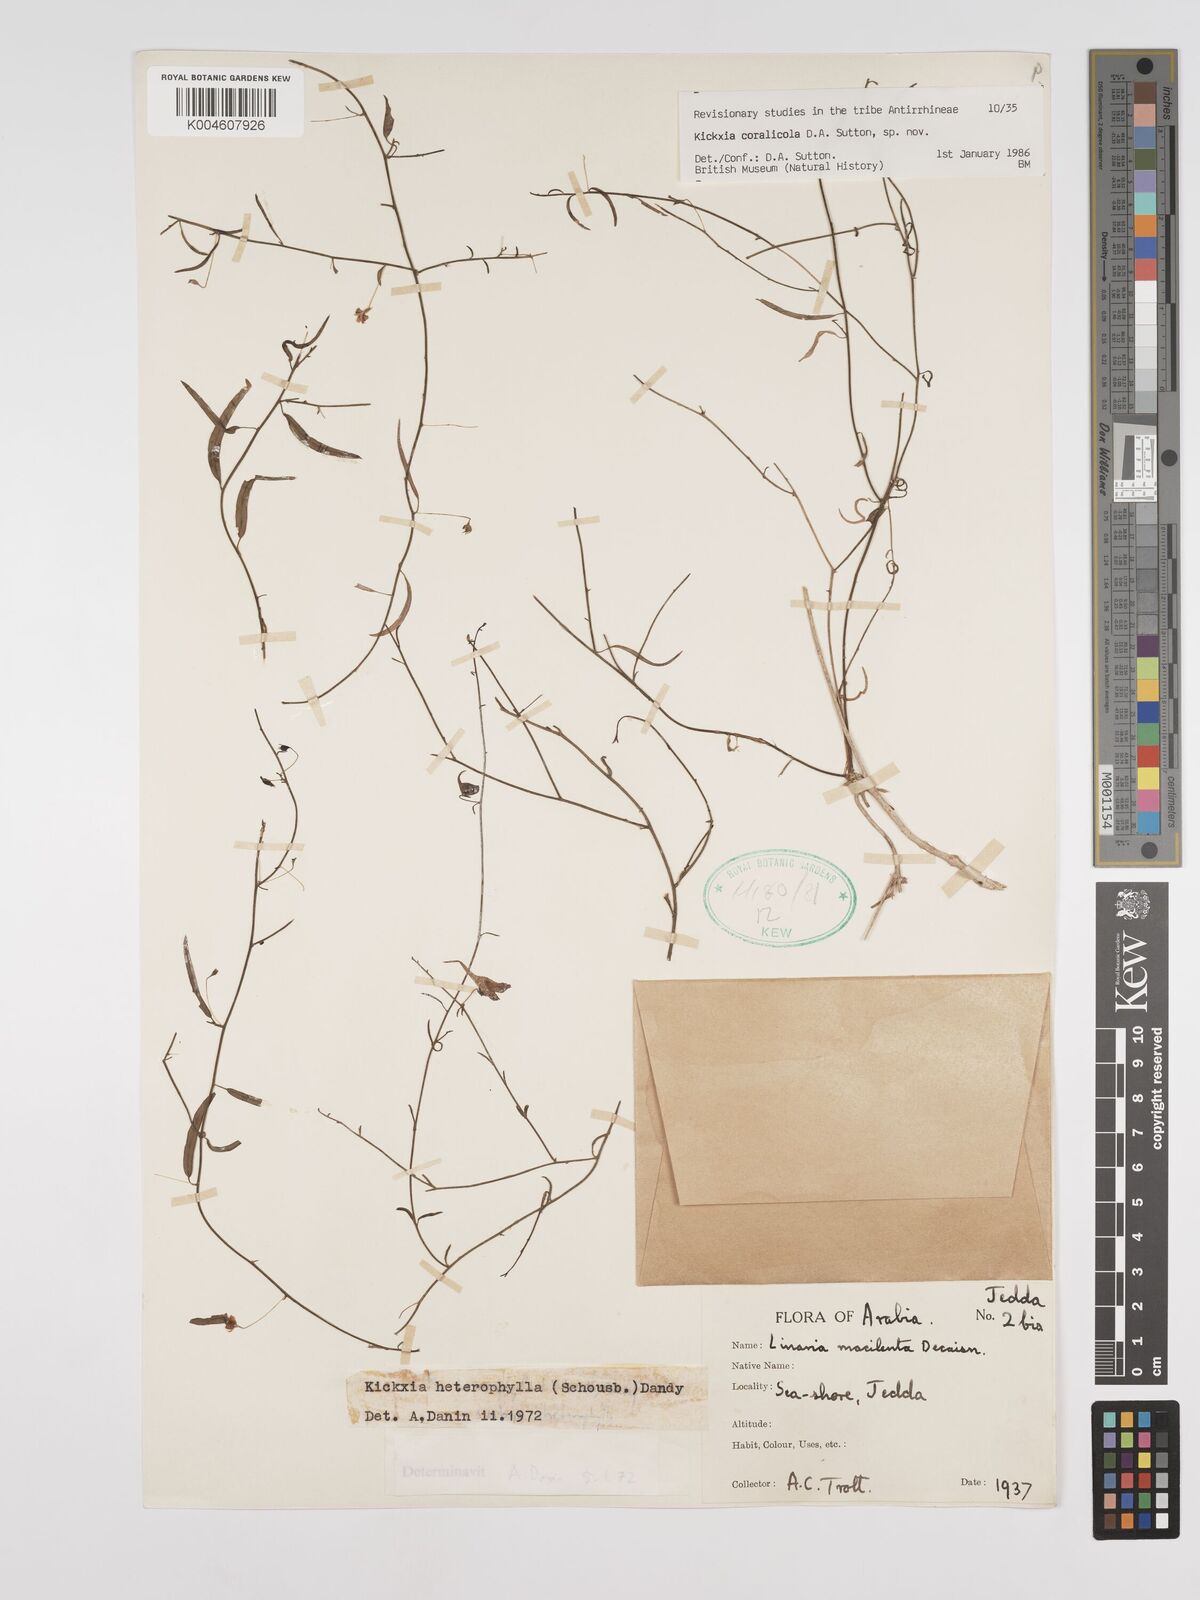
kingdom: Plantae
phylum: Tracheophyta
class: Magnoliopsida
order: Lamiales
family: Plantaginaceae
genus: Kickxia
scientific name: Kickxia corallicola
